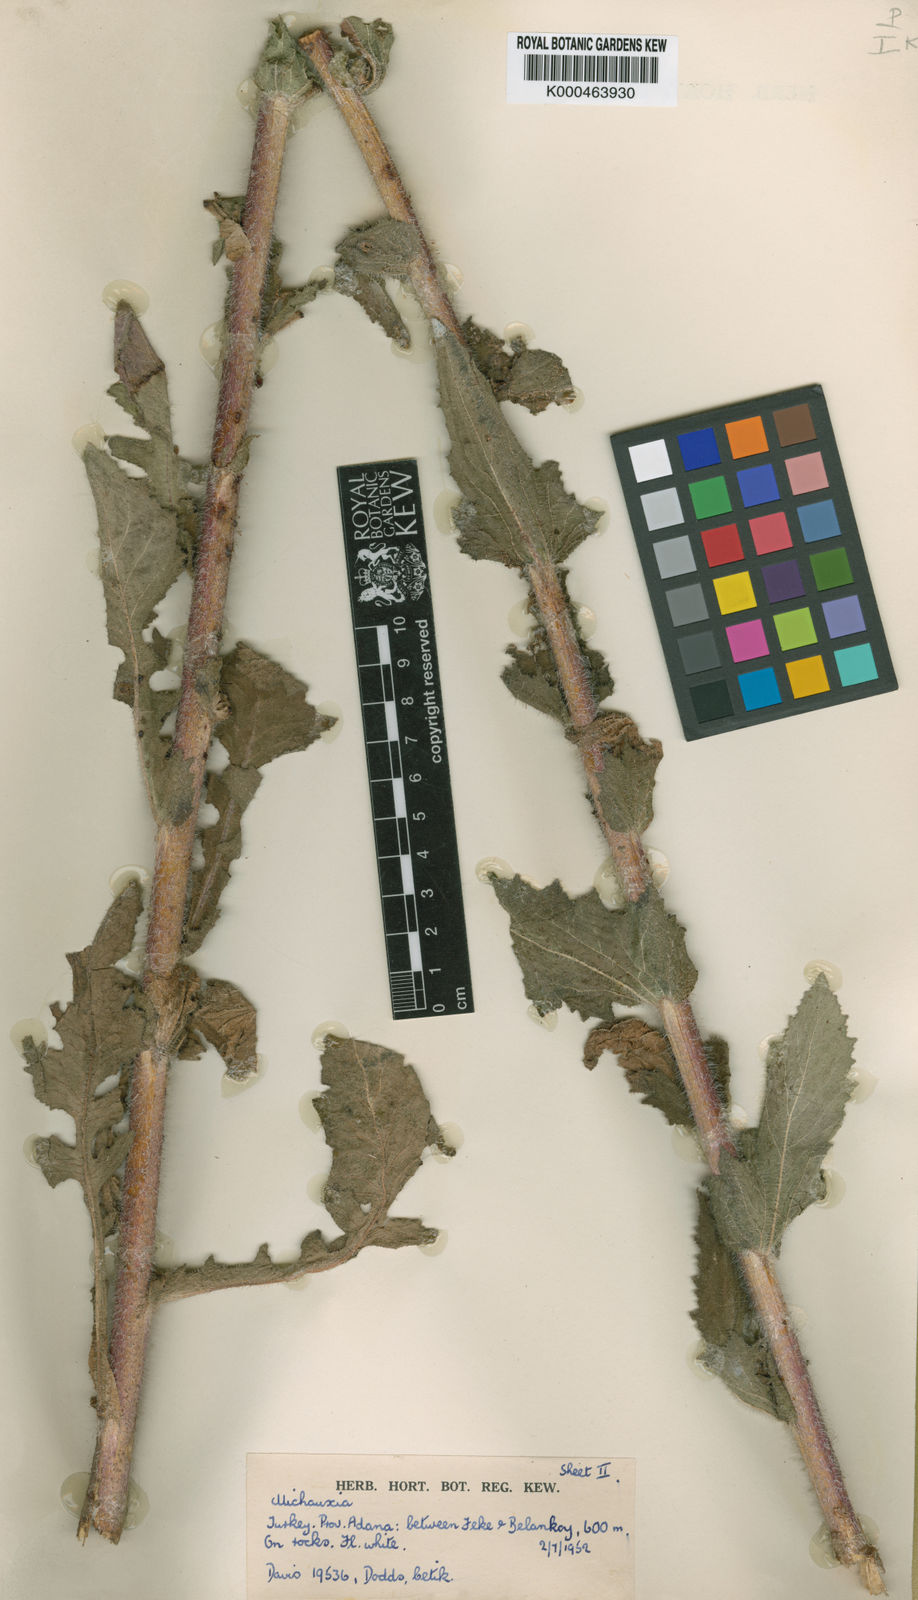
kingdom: Plantae
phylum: Tracheophyta
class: Magnoliopsida
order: Asterales
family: Campanulaceae
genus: Michauxia
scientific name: Michauxia
